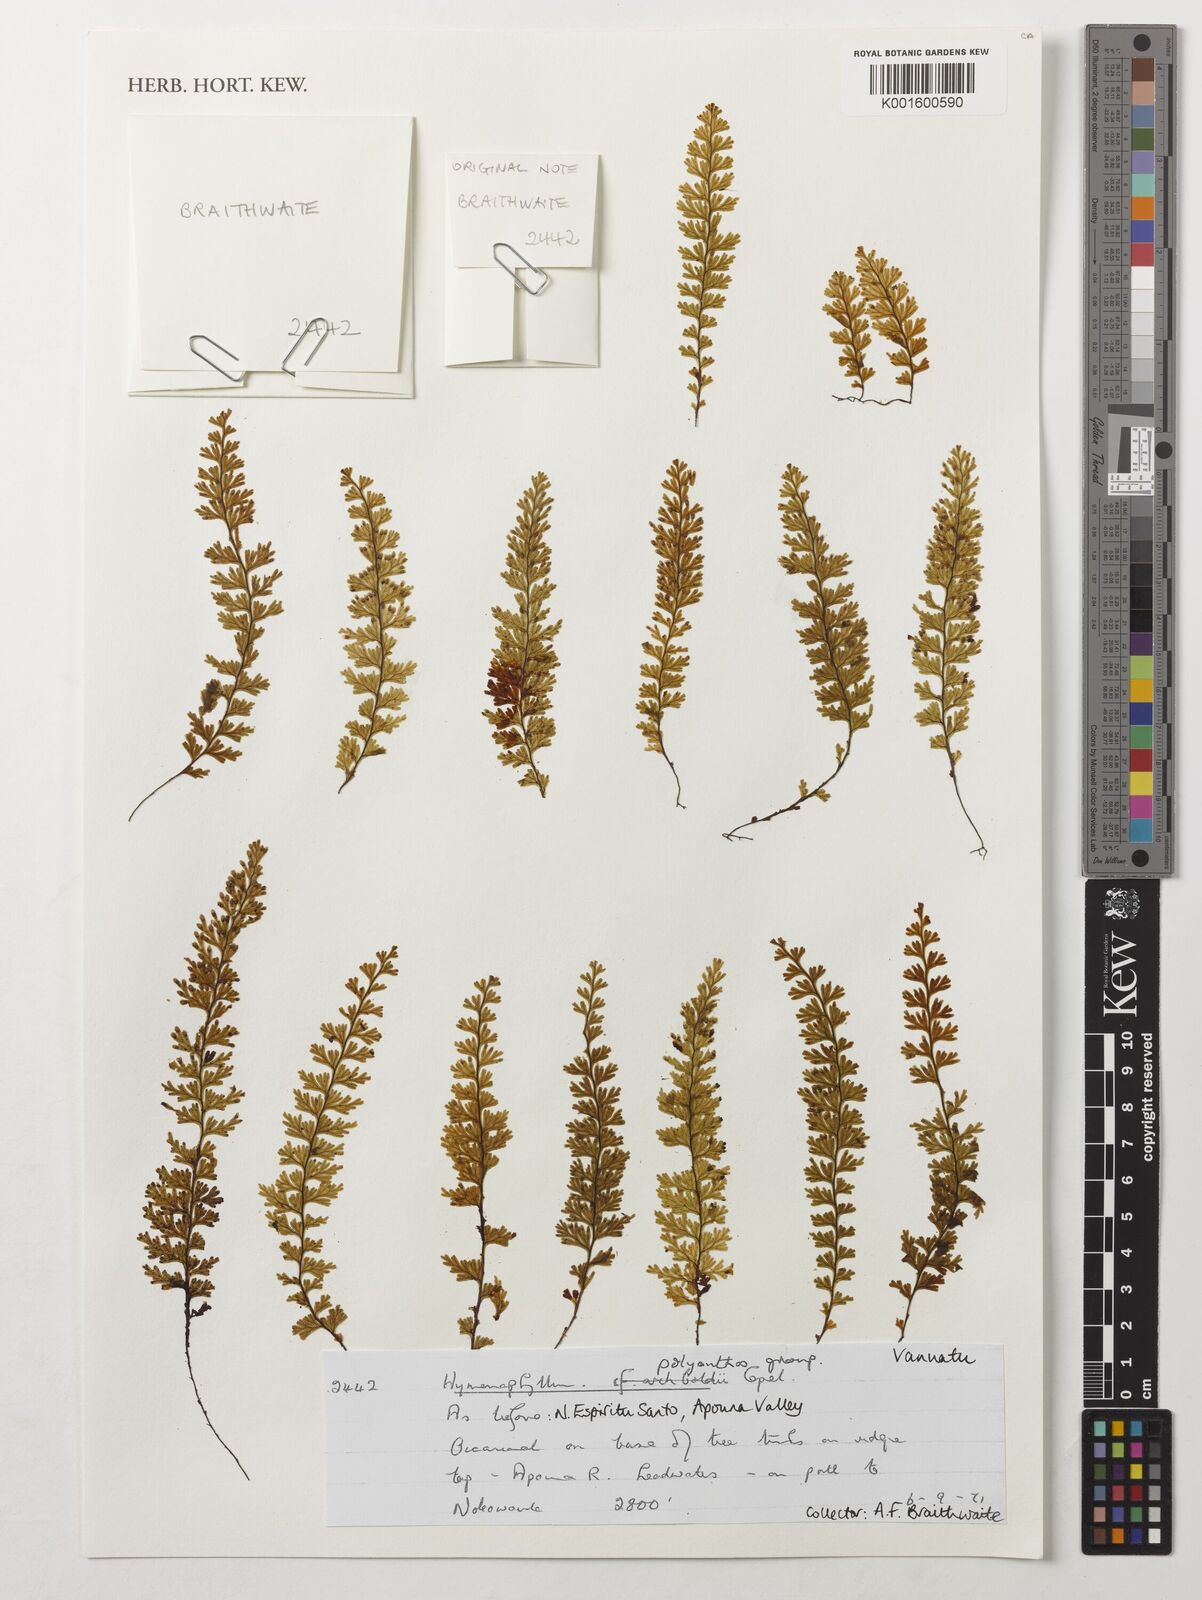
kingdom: Plantae
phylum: Tracheophyta
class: Polypodiopsida
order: Hymenophyllales
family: Hymenophyllaceae
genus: Hymenophyllum
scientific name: Hymenophyllum polyanthos
